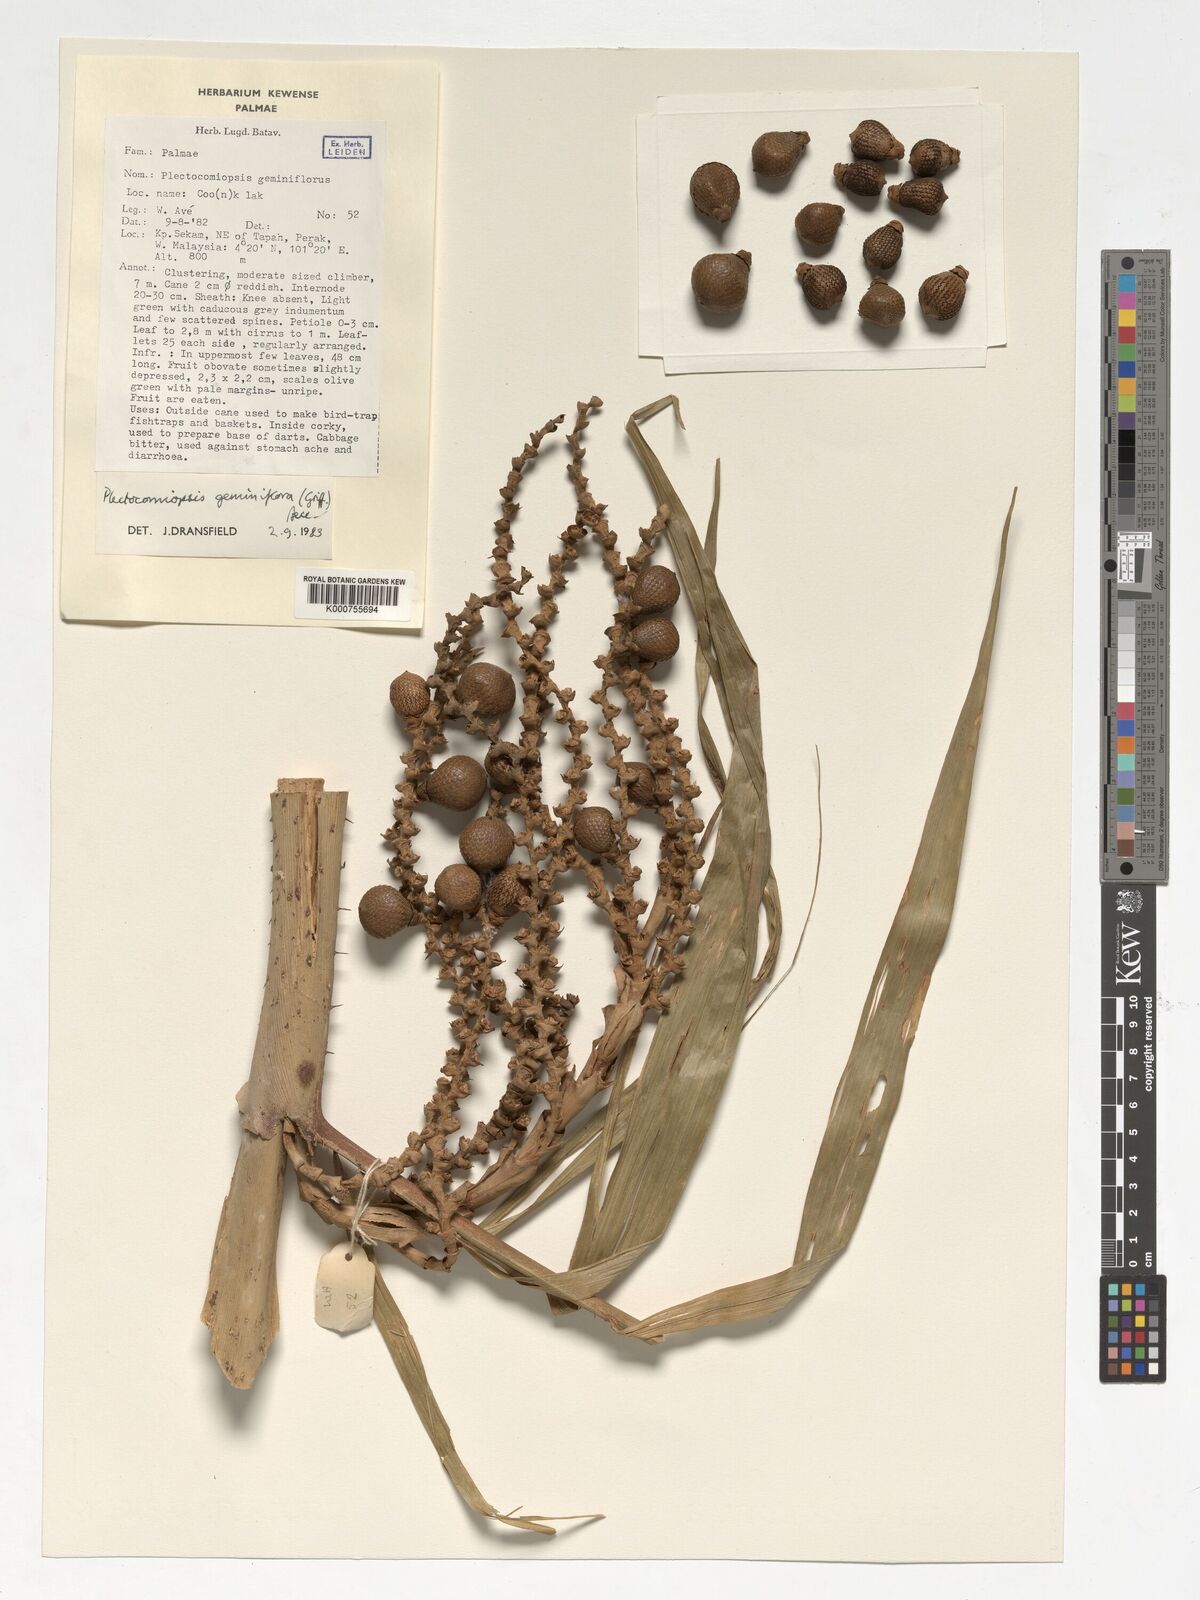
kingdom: Plantae
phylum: Tracheophyta
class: Liliopsida
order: Arecales
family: Arecaceae
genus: Plectocomiopsis
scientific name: Plectocomiopsis geminiflora
